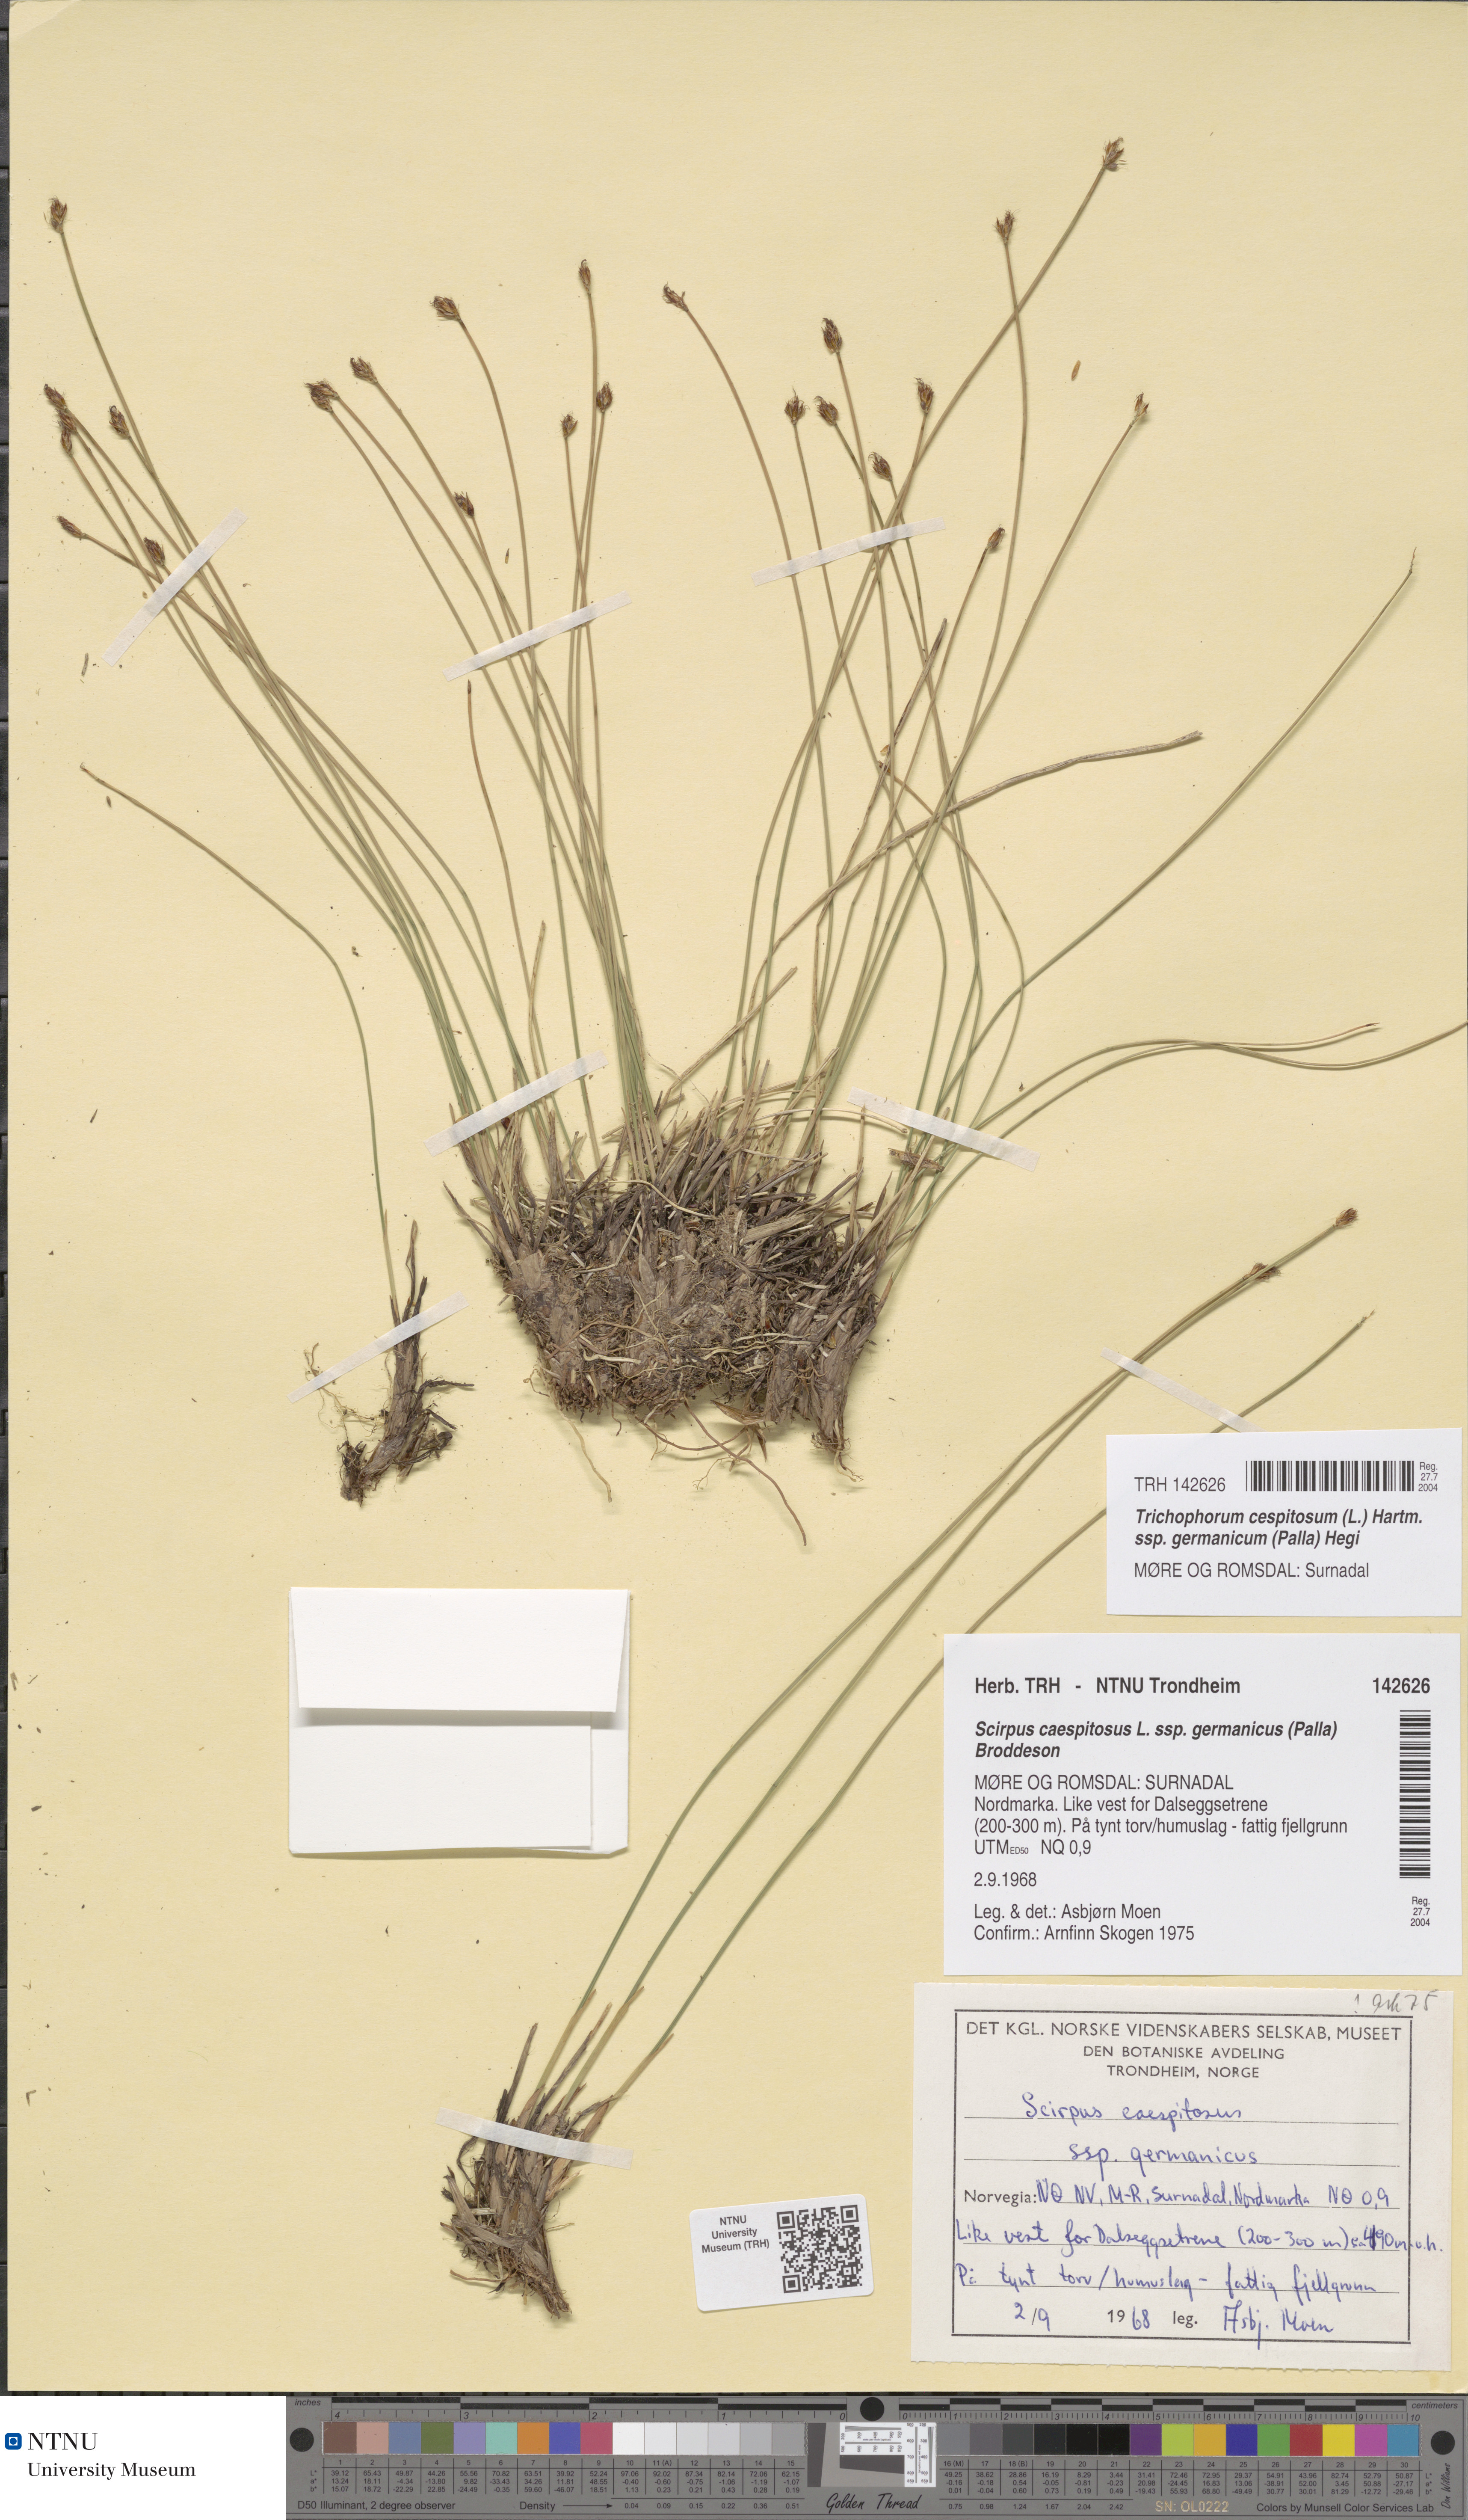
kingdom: Plantae
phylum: Tracheophyta
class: Liliopsida
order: Poales
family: Cyperaceae
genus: Trichophorum
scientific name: Trichophorum cespitosum
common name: Cespitose bulrush
